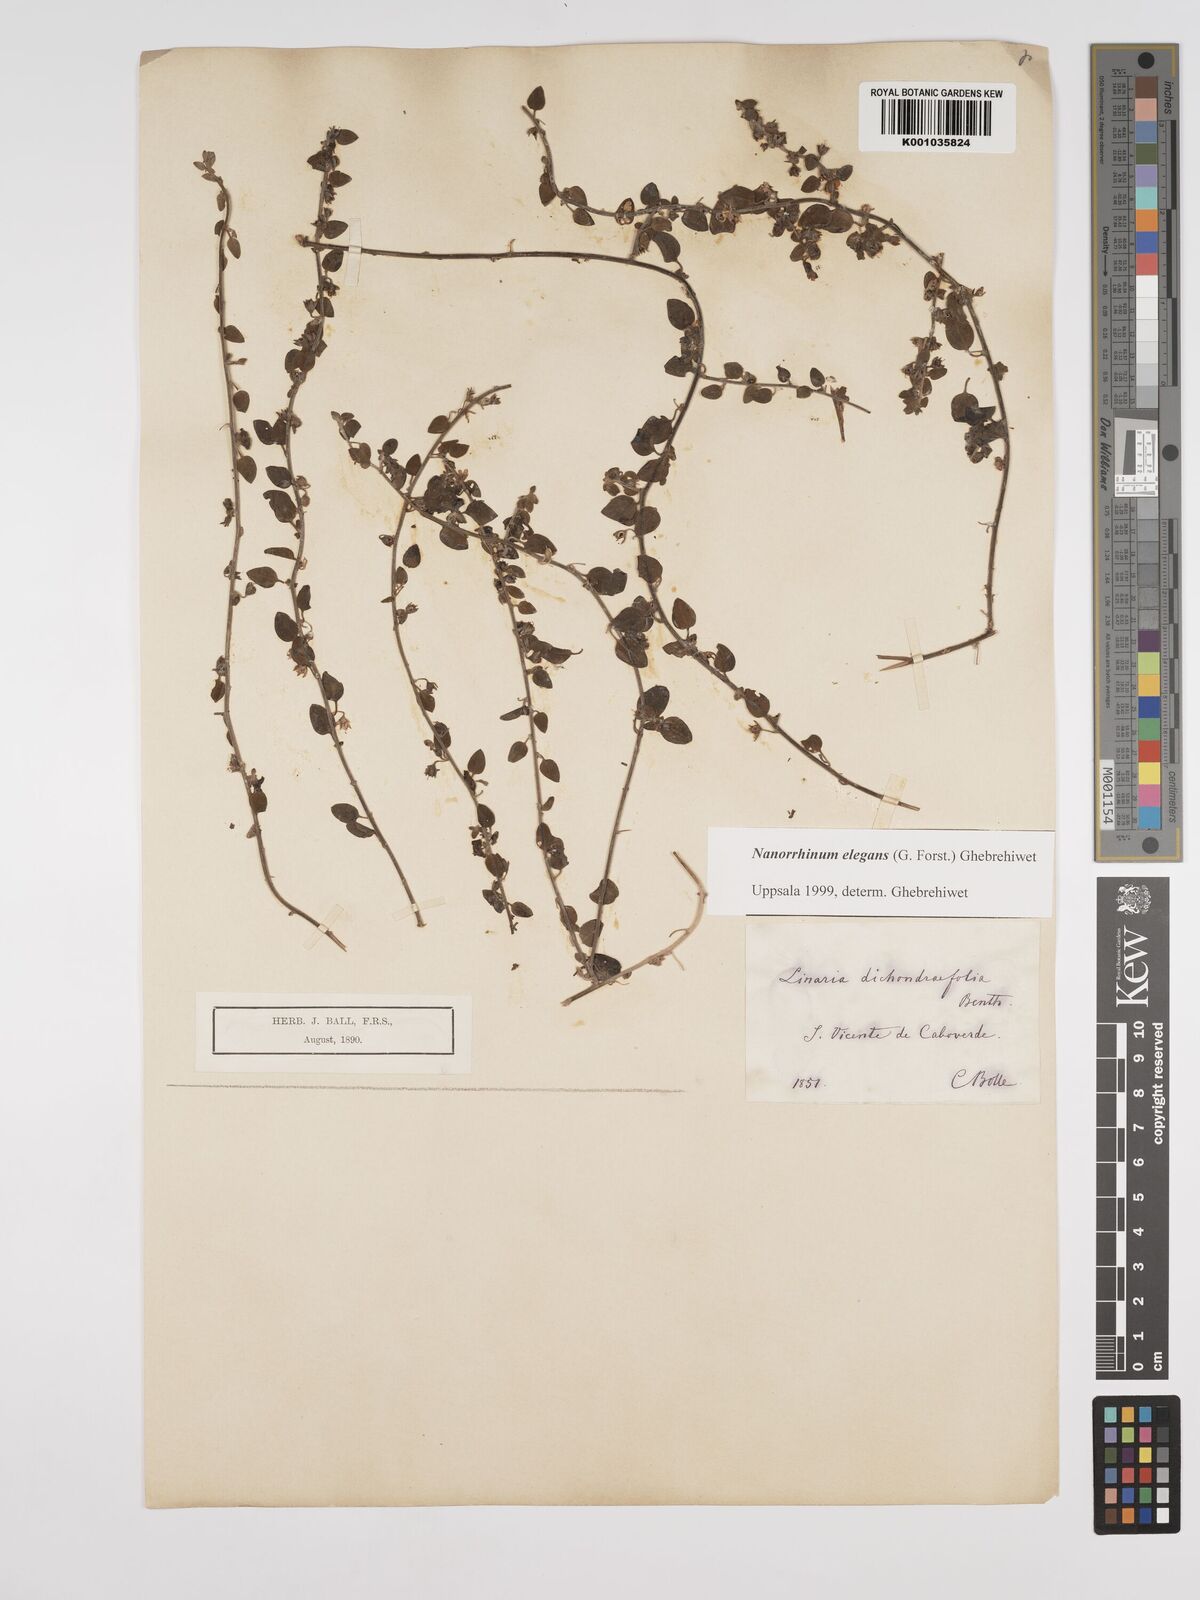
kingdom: Plantae
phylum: Tracheophyta
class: Magnoliopsida
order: Lamiales
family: Plantaginaceae
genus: Nanorrhinum
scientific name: Nanorrhinum dichondrifolium
